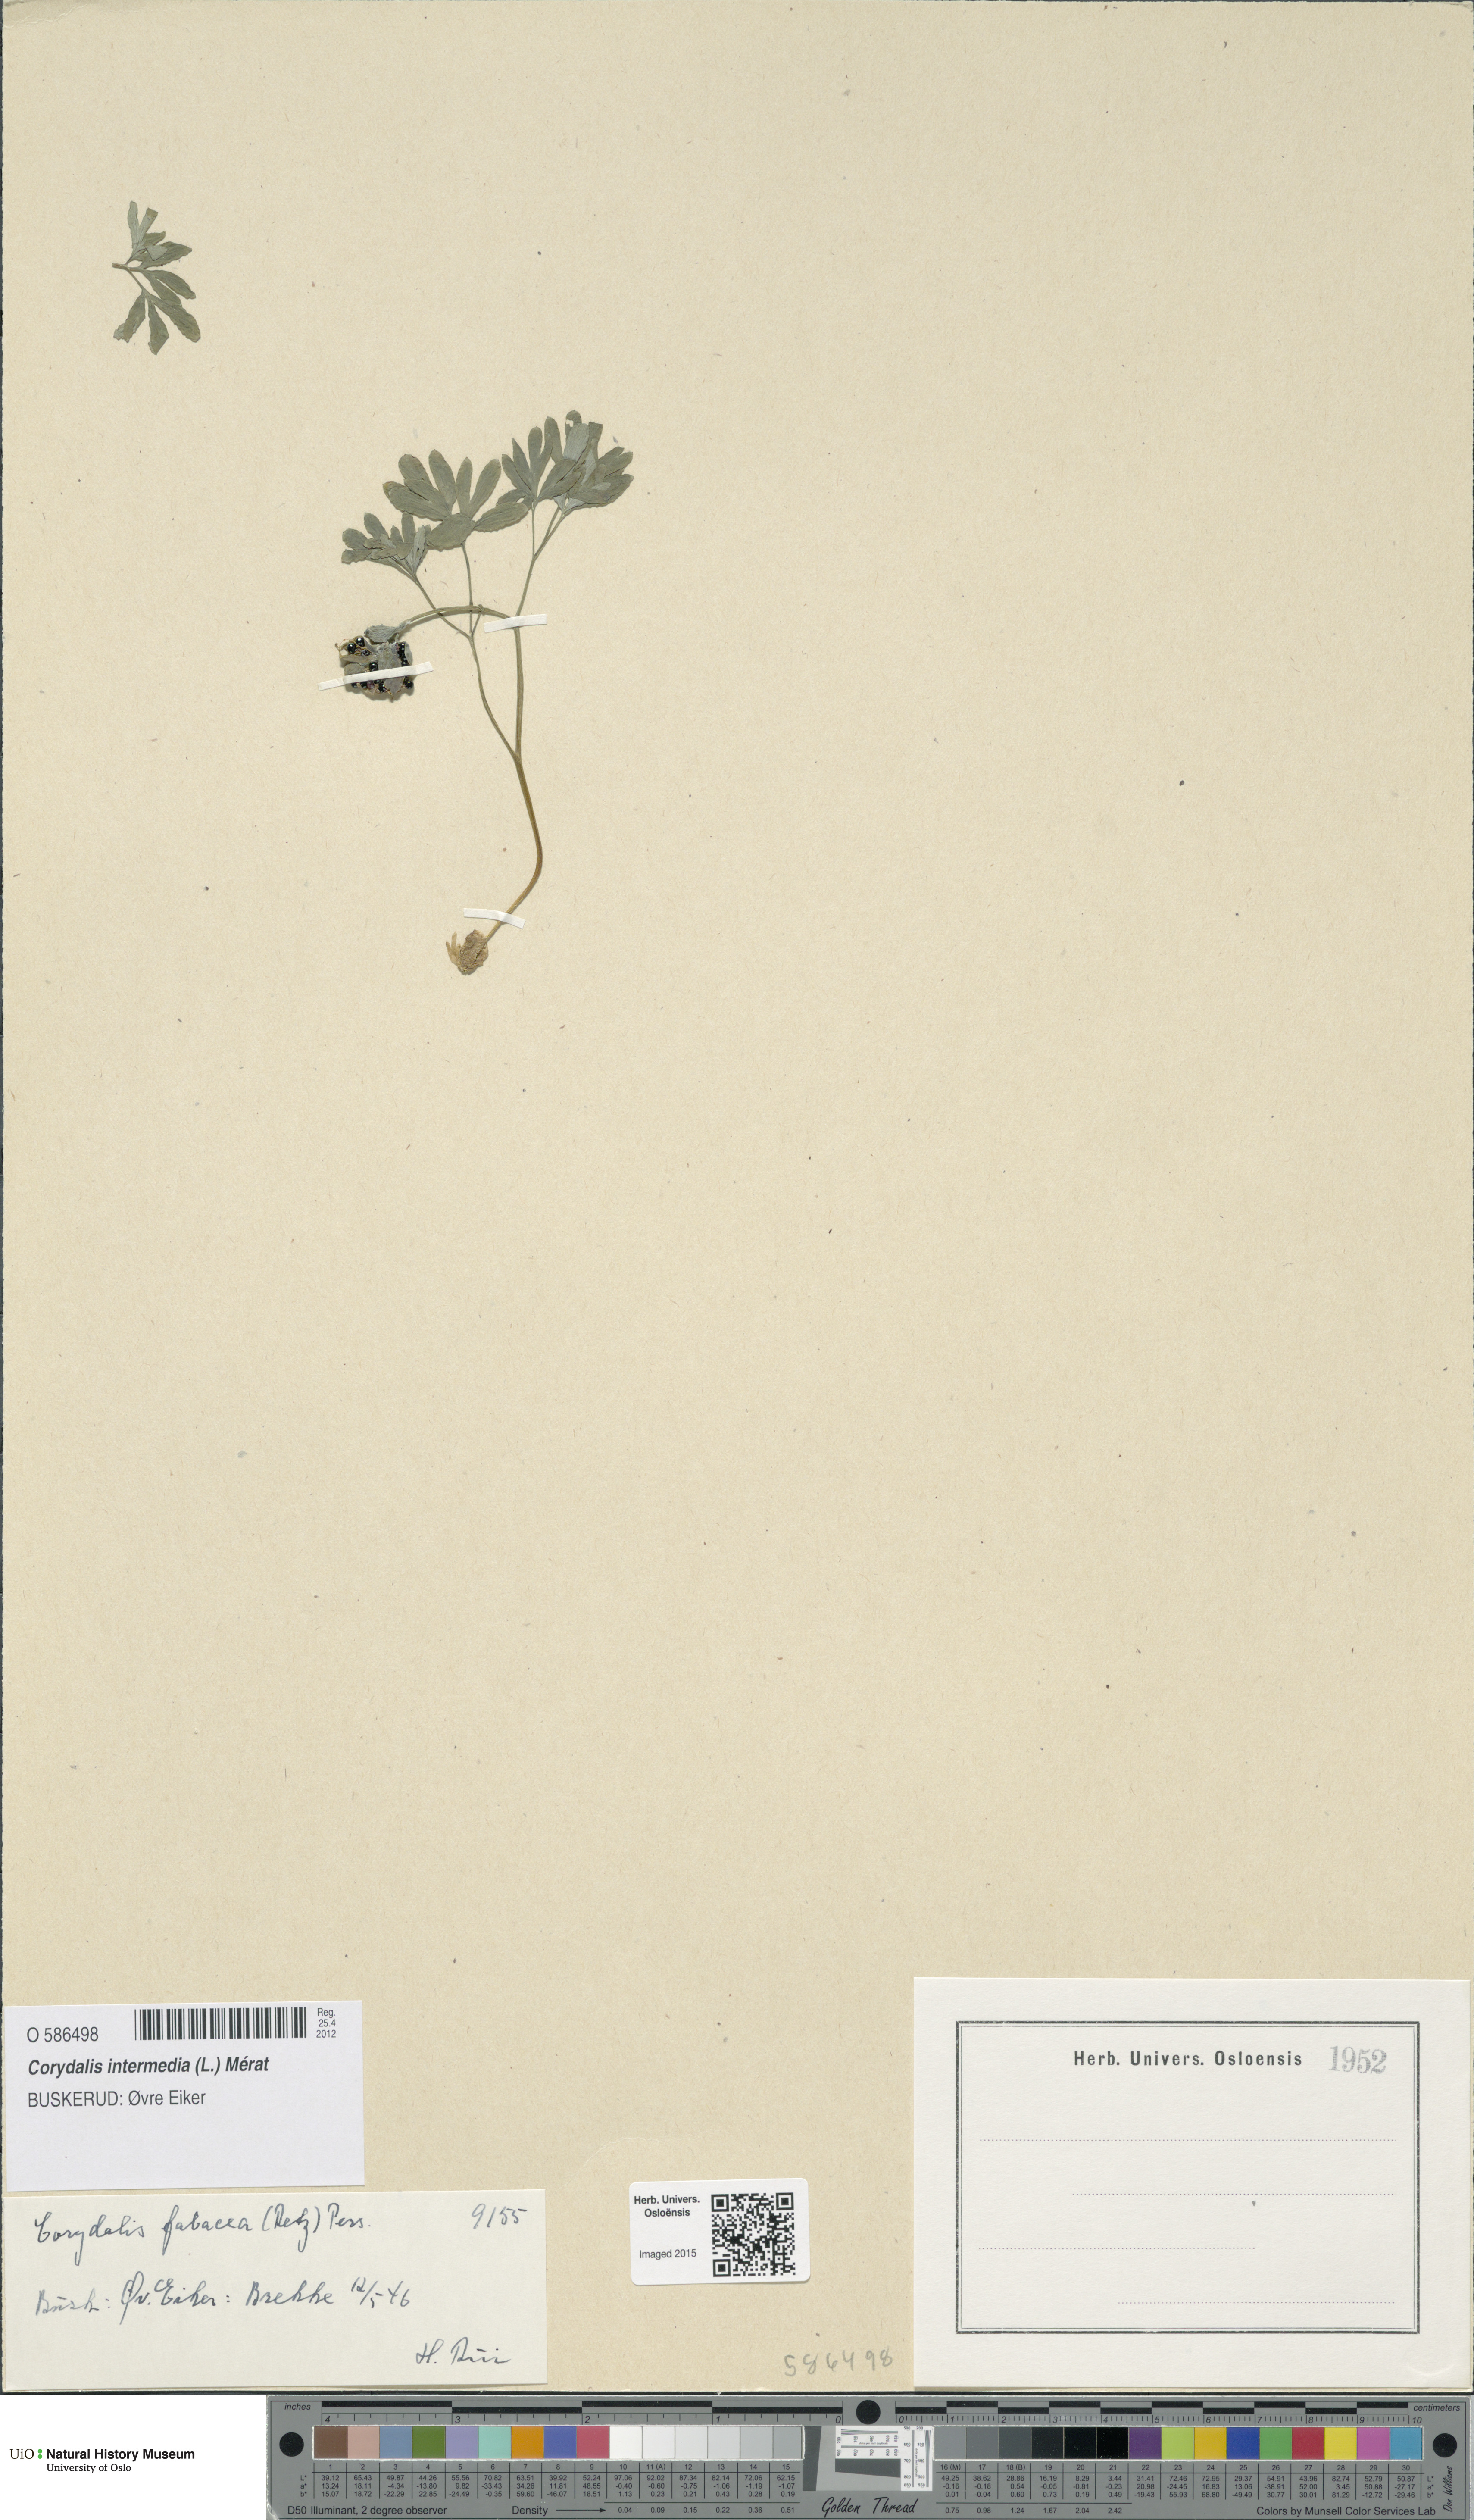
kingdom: Plantae
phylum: Tracheophyta
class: Magnoliopsida
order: Ranunculales
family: Papaveraceae
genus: Corydalis
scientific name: Corydalis intermedia
